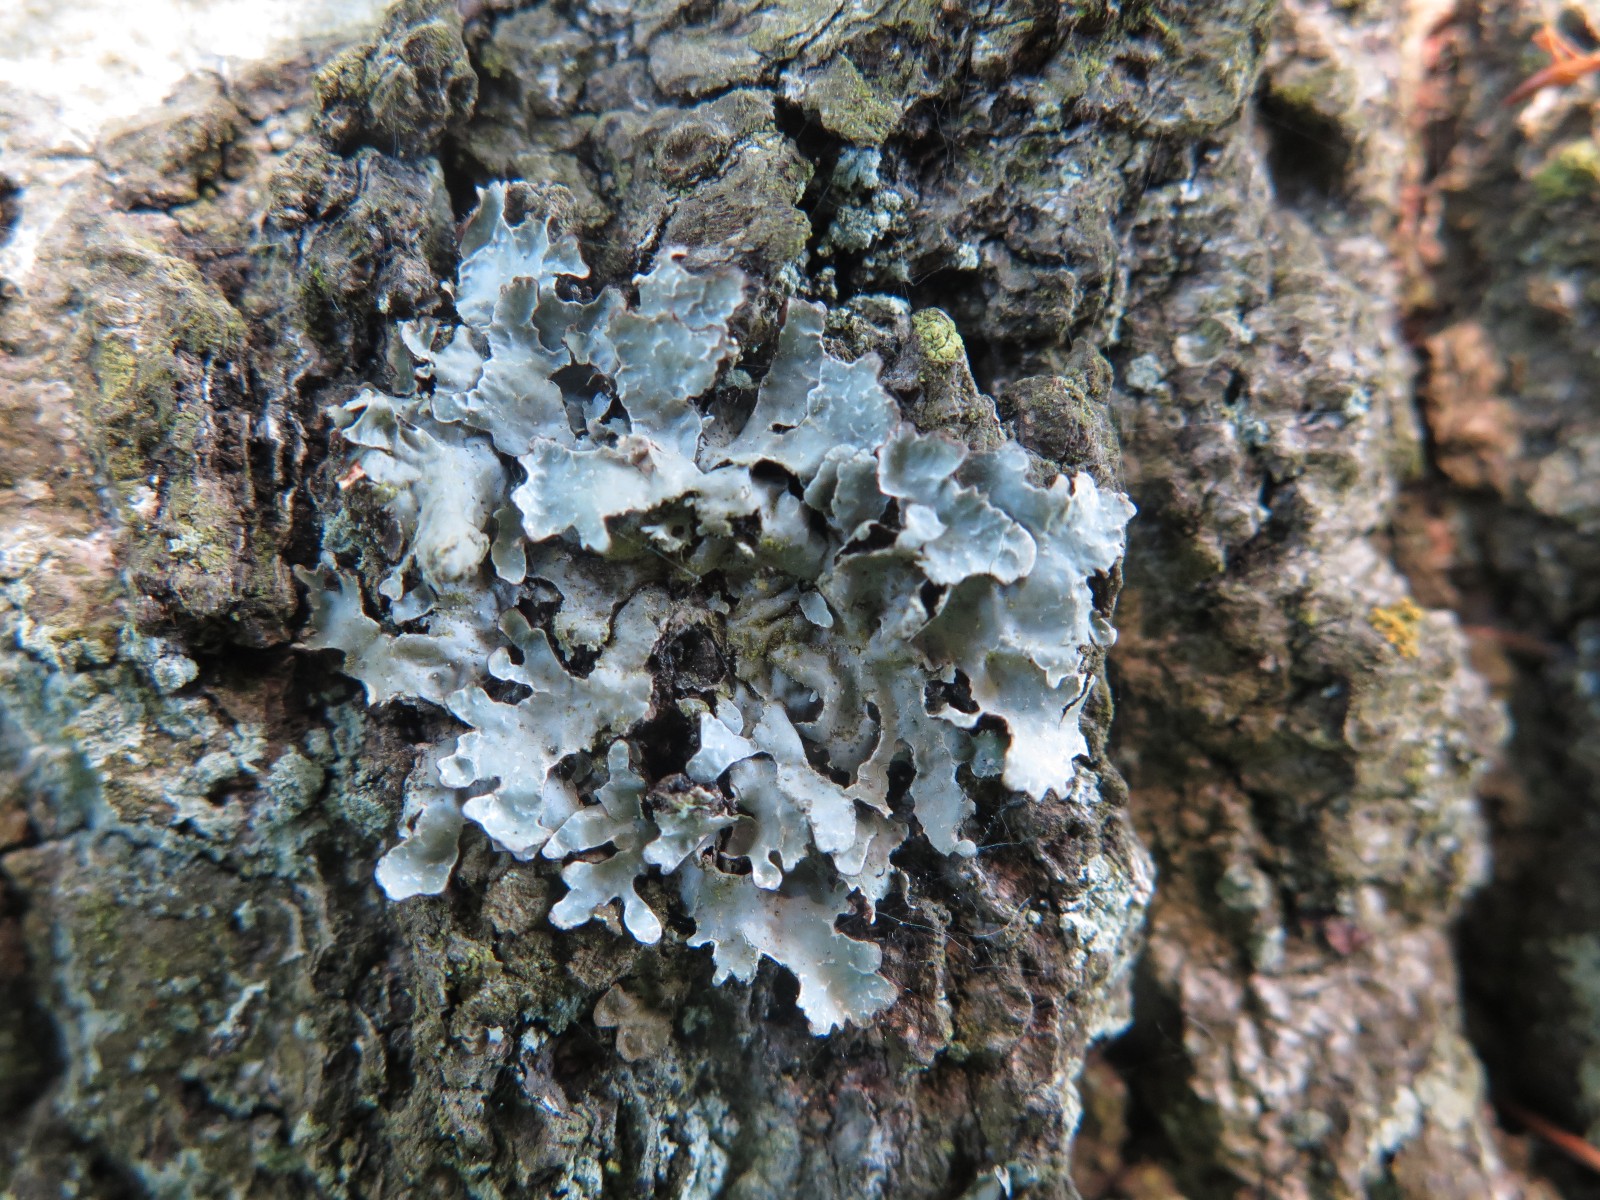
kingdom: Fungi
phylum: Ascomycota
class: Lecanoromycetes
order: Lecanorales
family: Parmeliaceae
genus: Parmelia
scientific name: Parmelia sulcata
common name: rynket skållav
